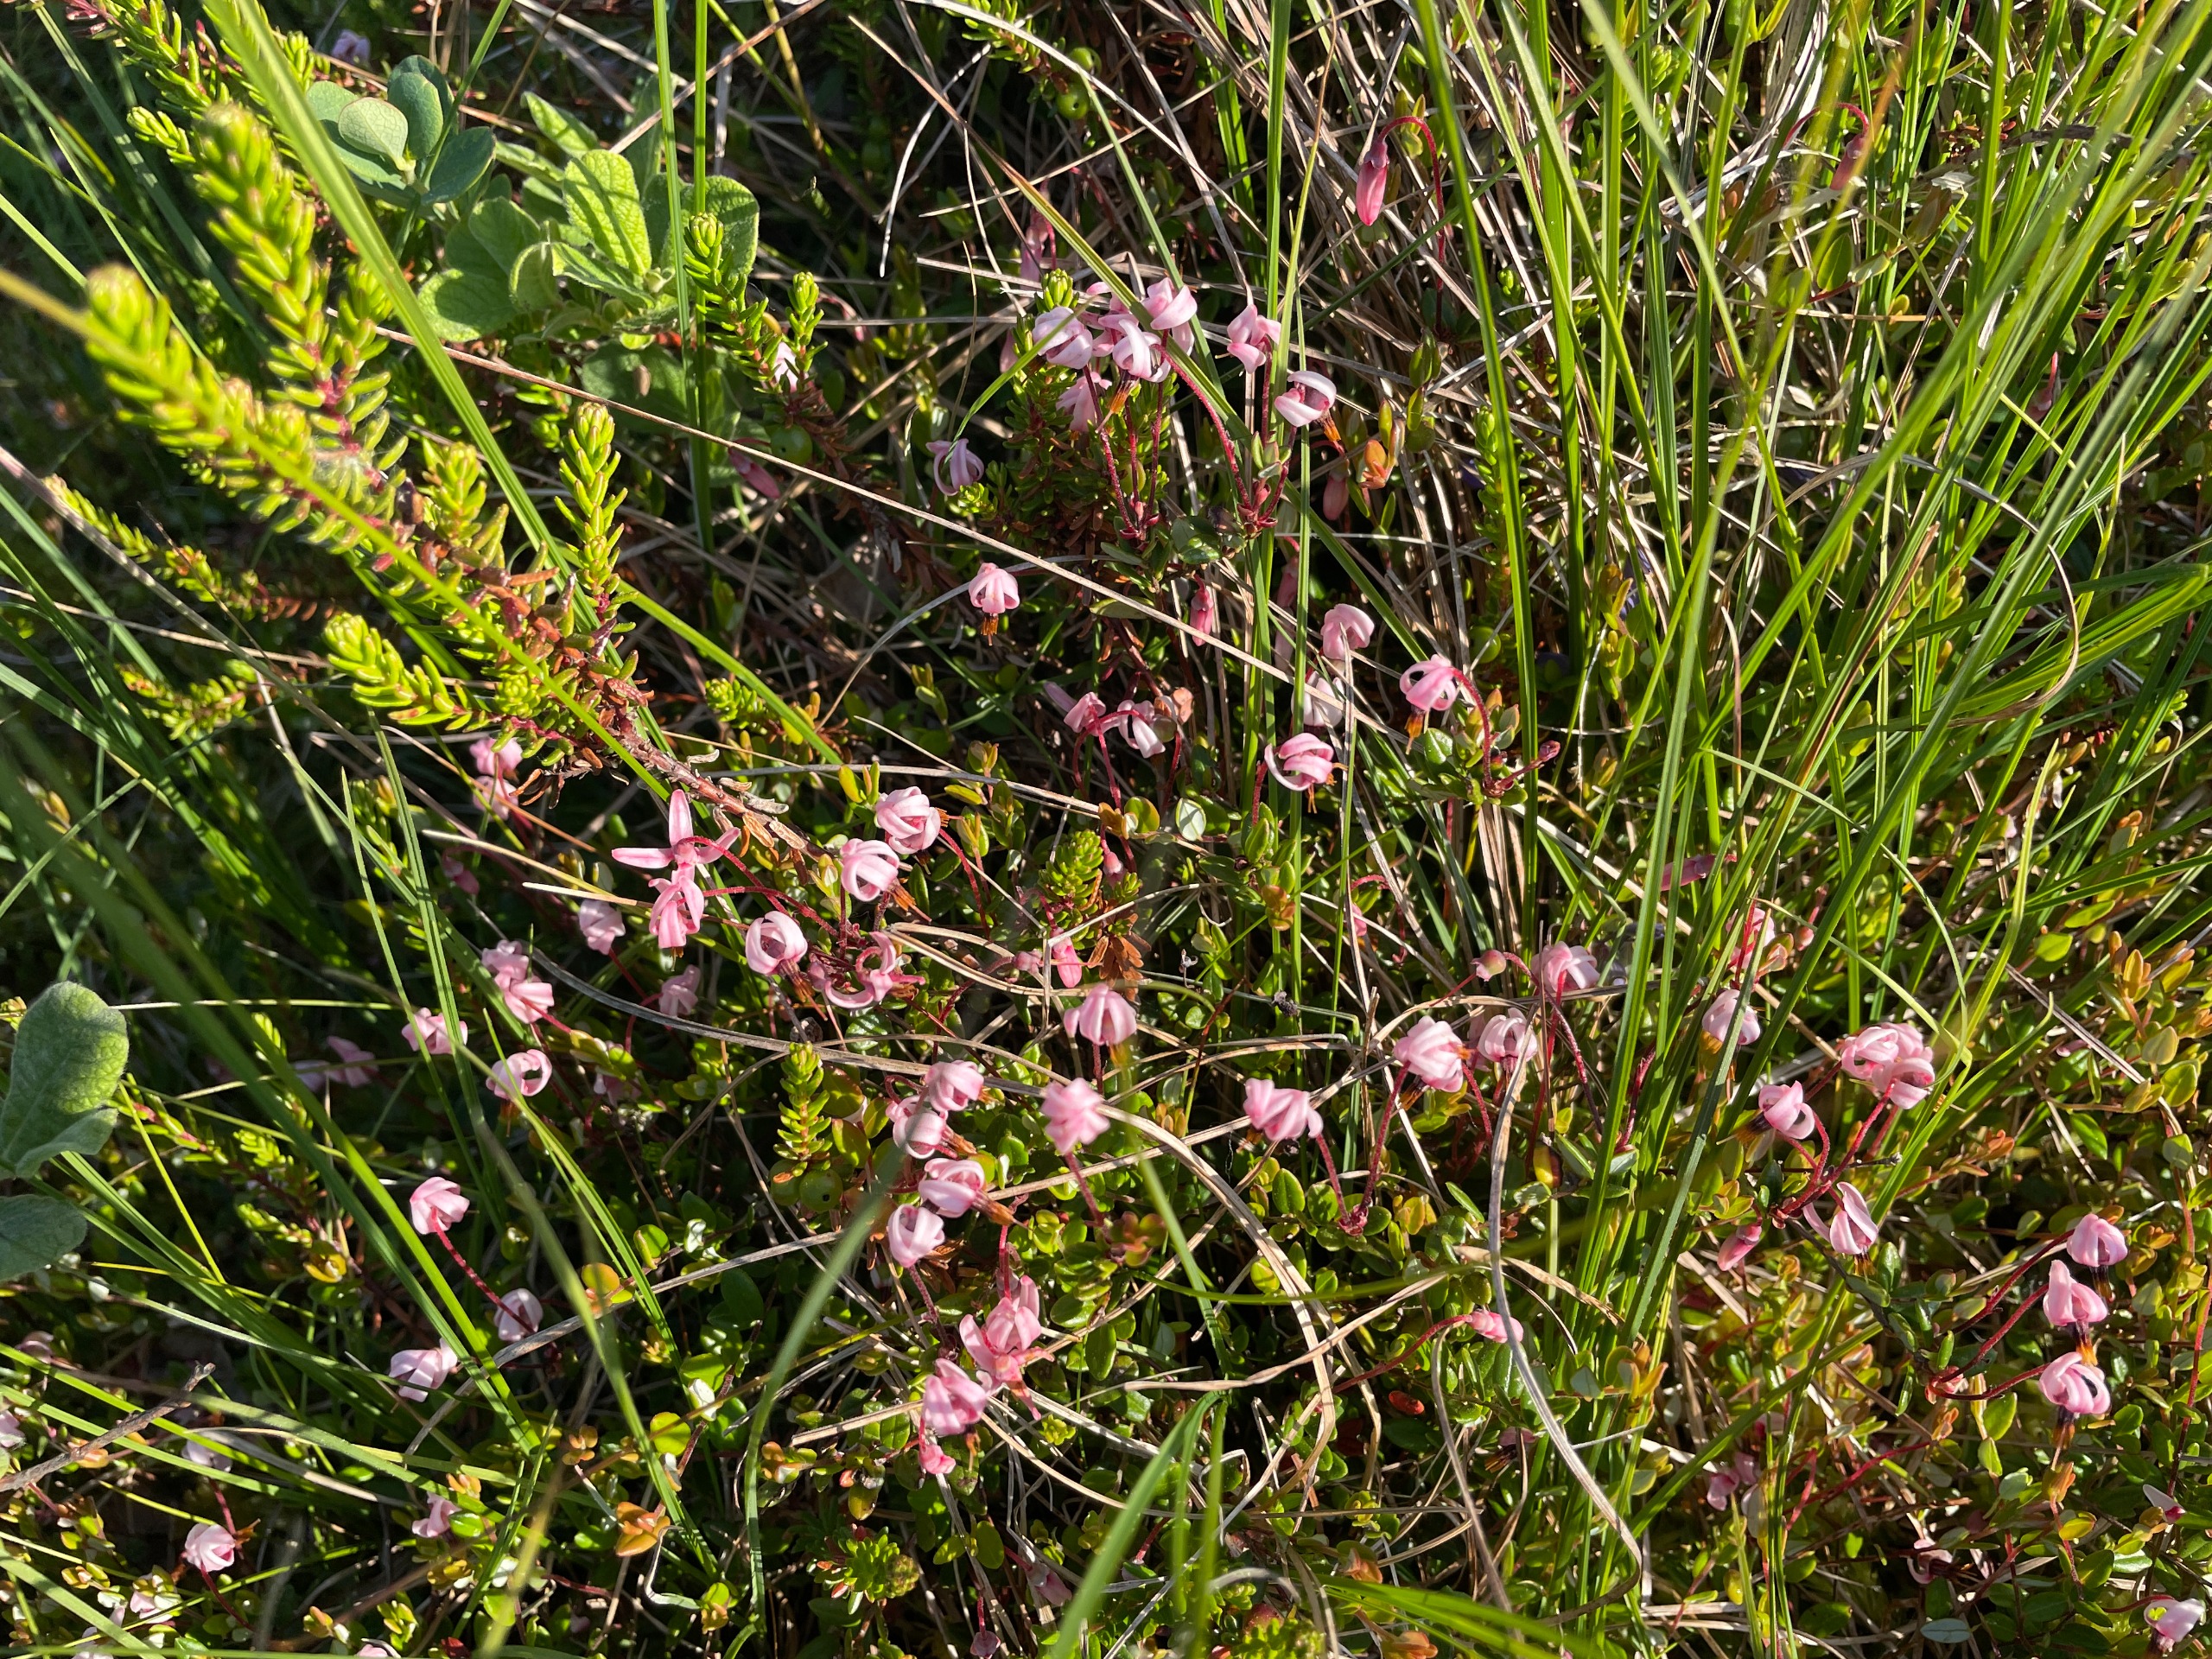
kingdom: Plantae
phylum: Tracheophyta
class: Magnoliopsida
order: Ericales
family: Ericaceae
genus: Vaccinium
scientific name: Vaccinium oxycoccos
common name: Tranebær
